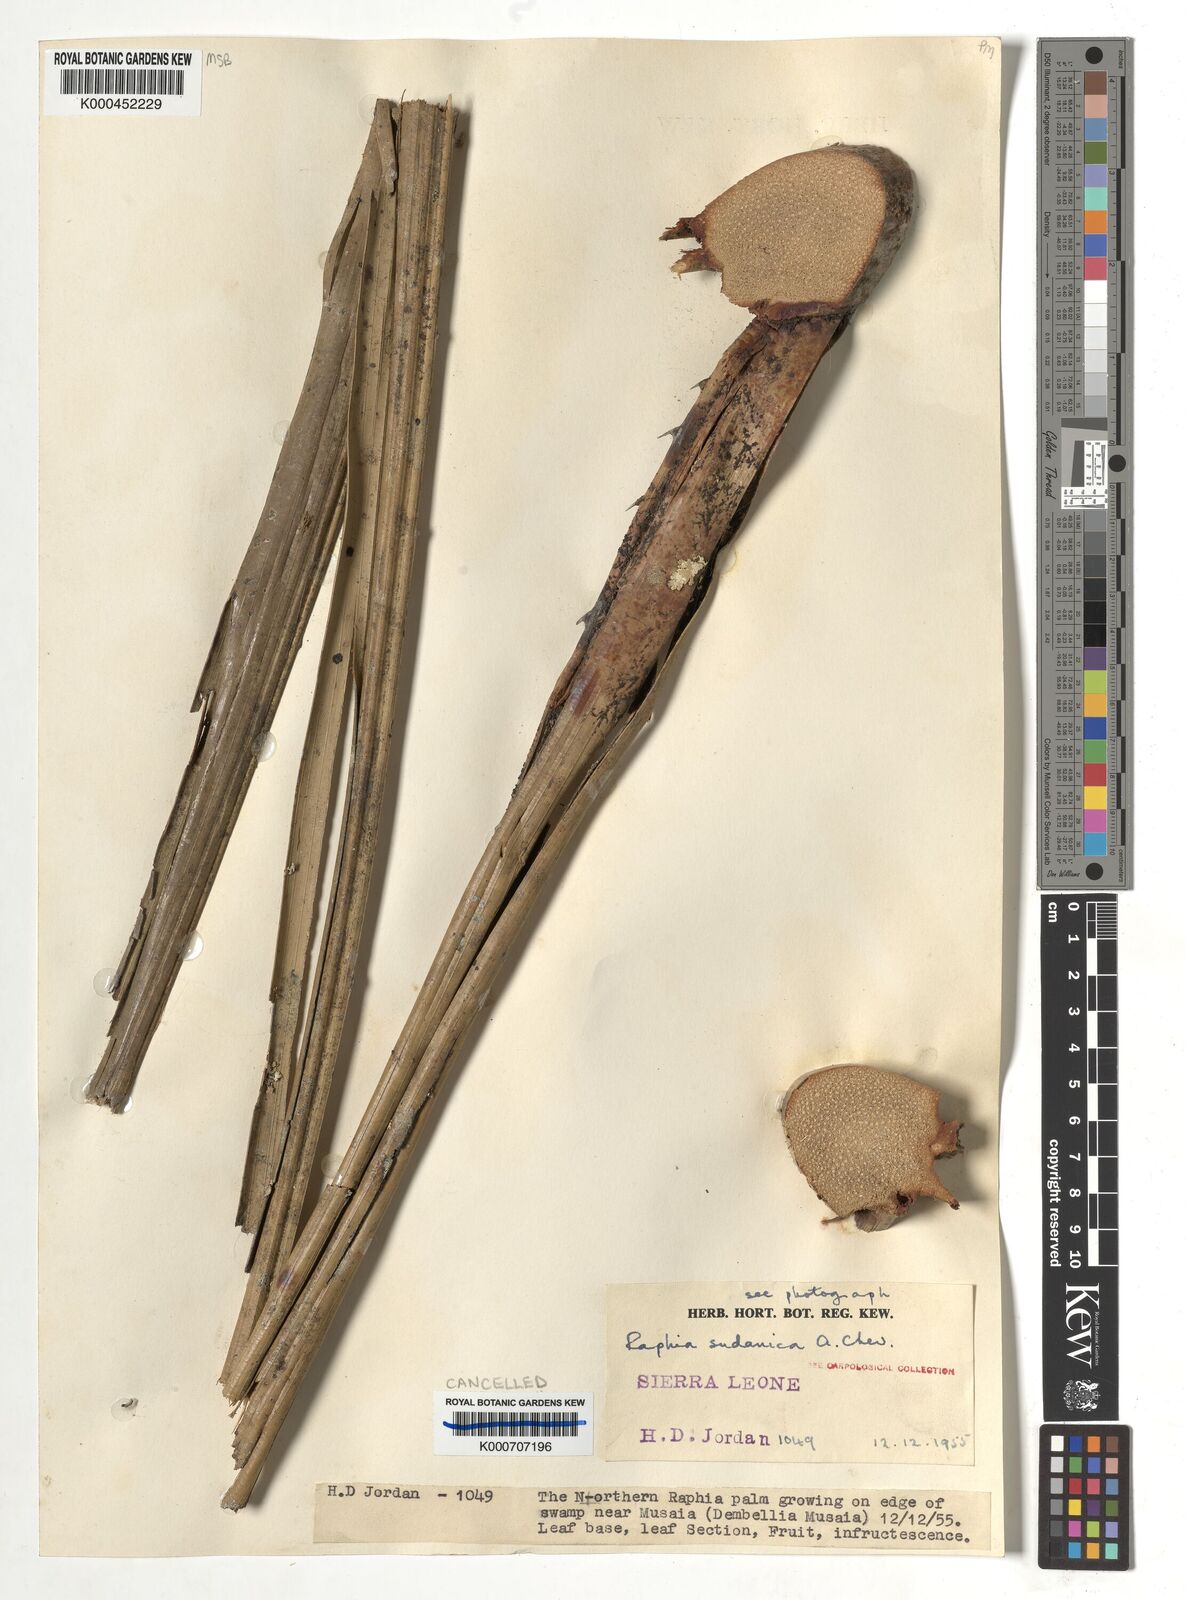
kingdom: Plantae
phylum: Tracheophyta
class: Liliopsida
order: Arecales
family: Arecaceae
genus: Raphia
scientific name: Raphia sudanica
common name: Northern raphia
